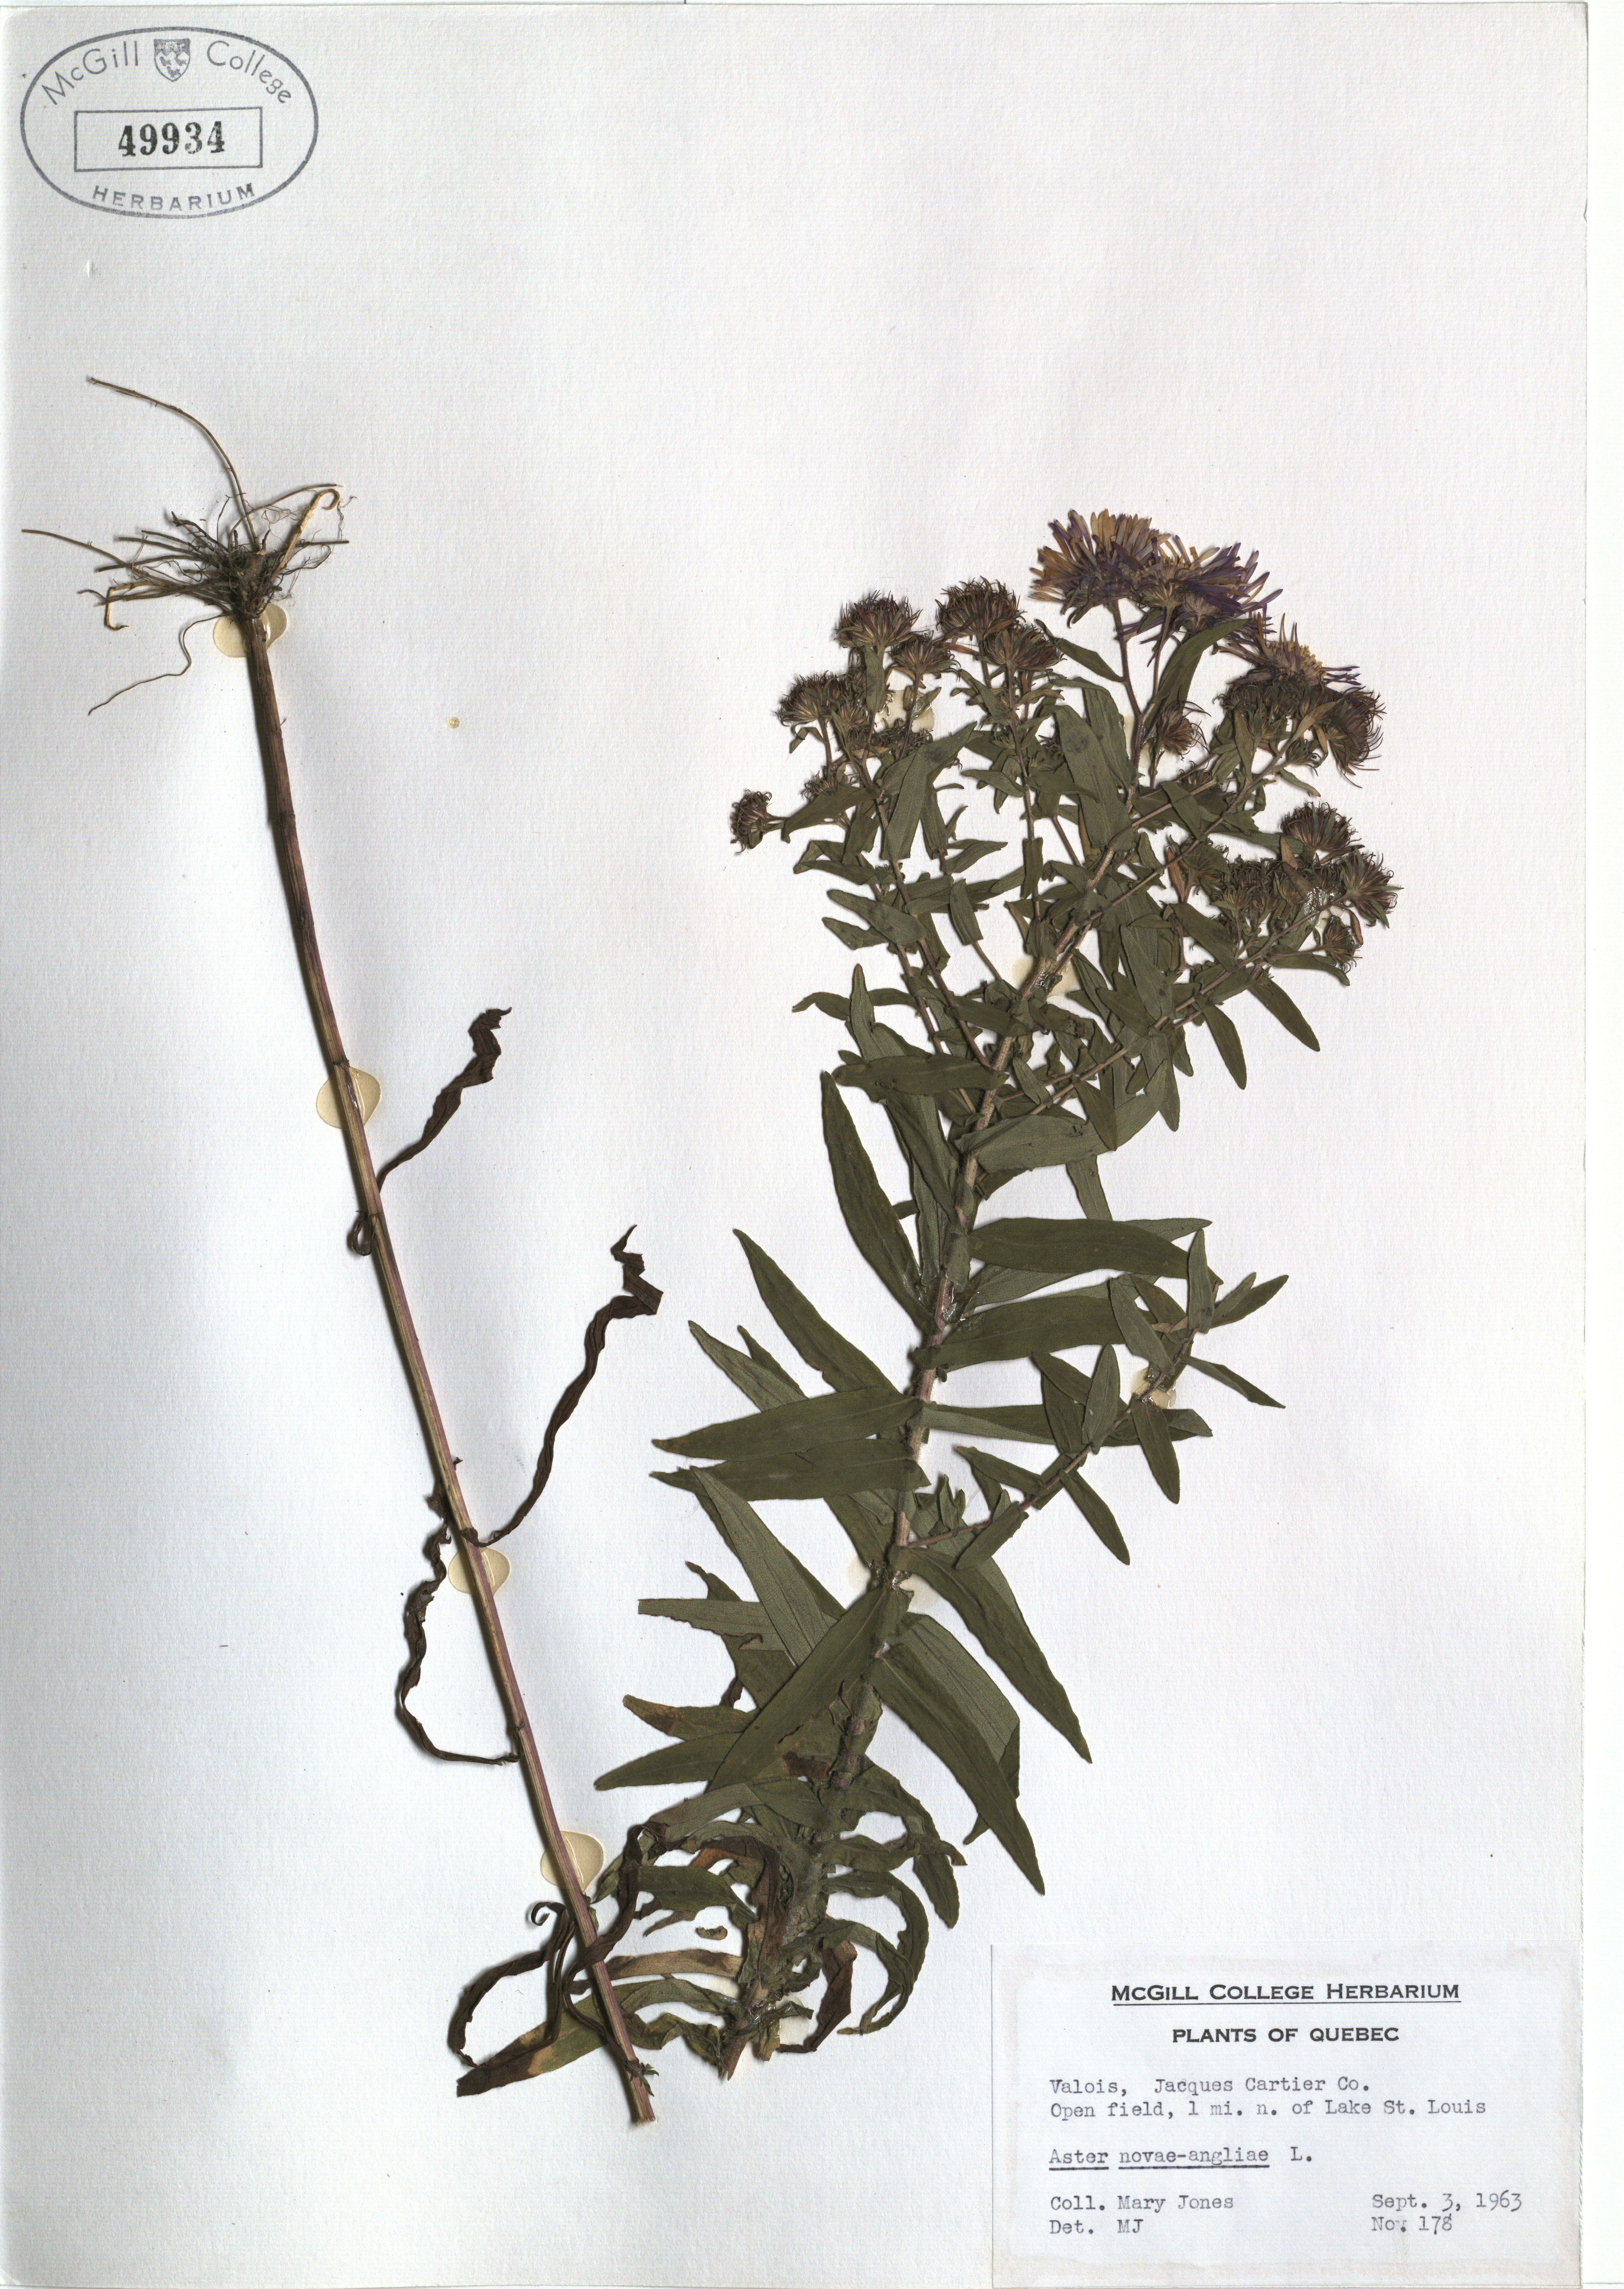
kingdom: Plantae
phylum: Tracheophyta
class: Magnoliopsida
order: Asterales
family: Asteraceae
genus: Symphyotrichum
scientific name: Symphyotrichum novae-angliae
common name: Michaelmas daisy
